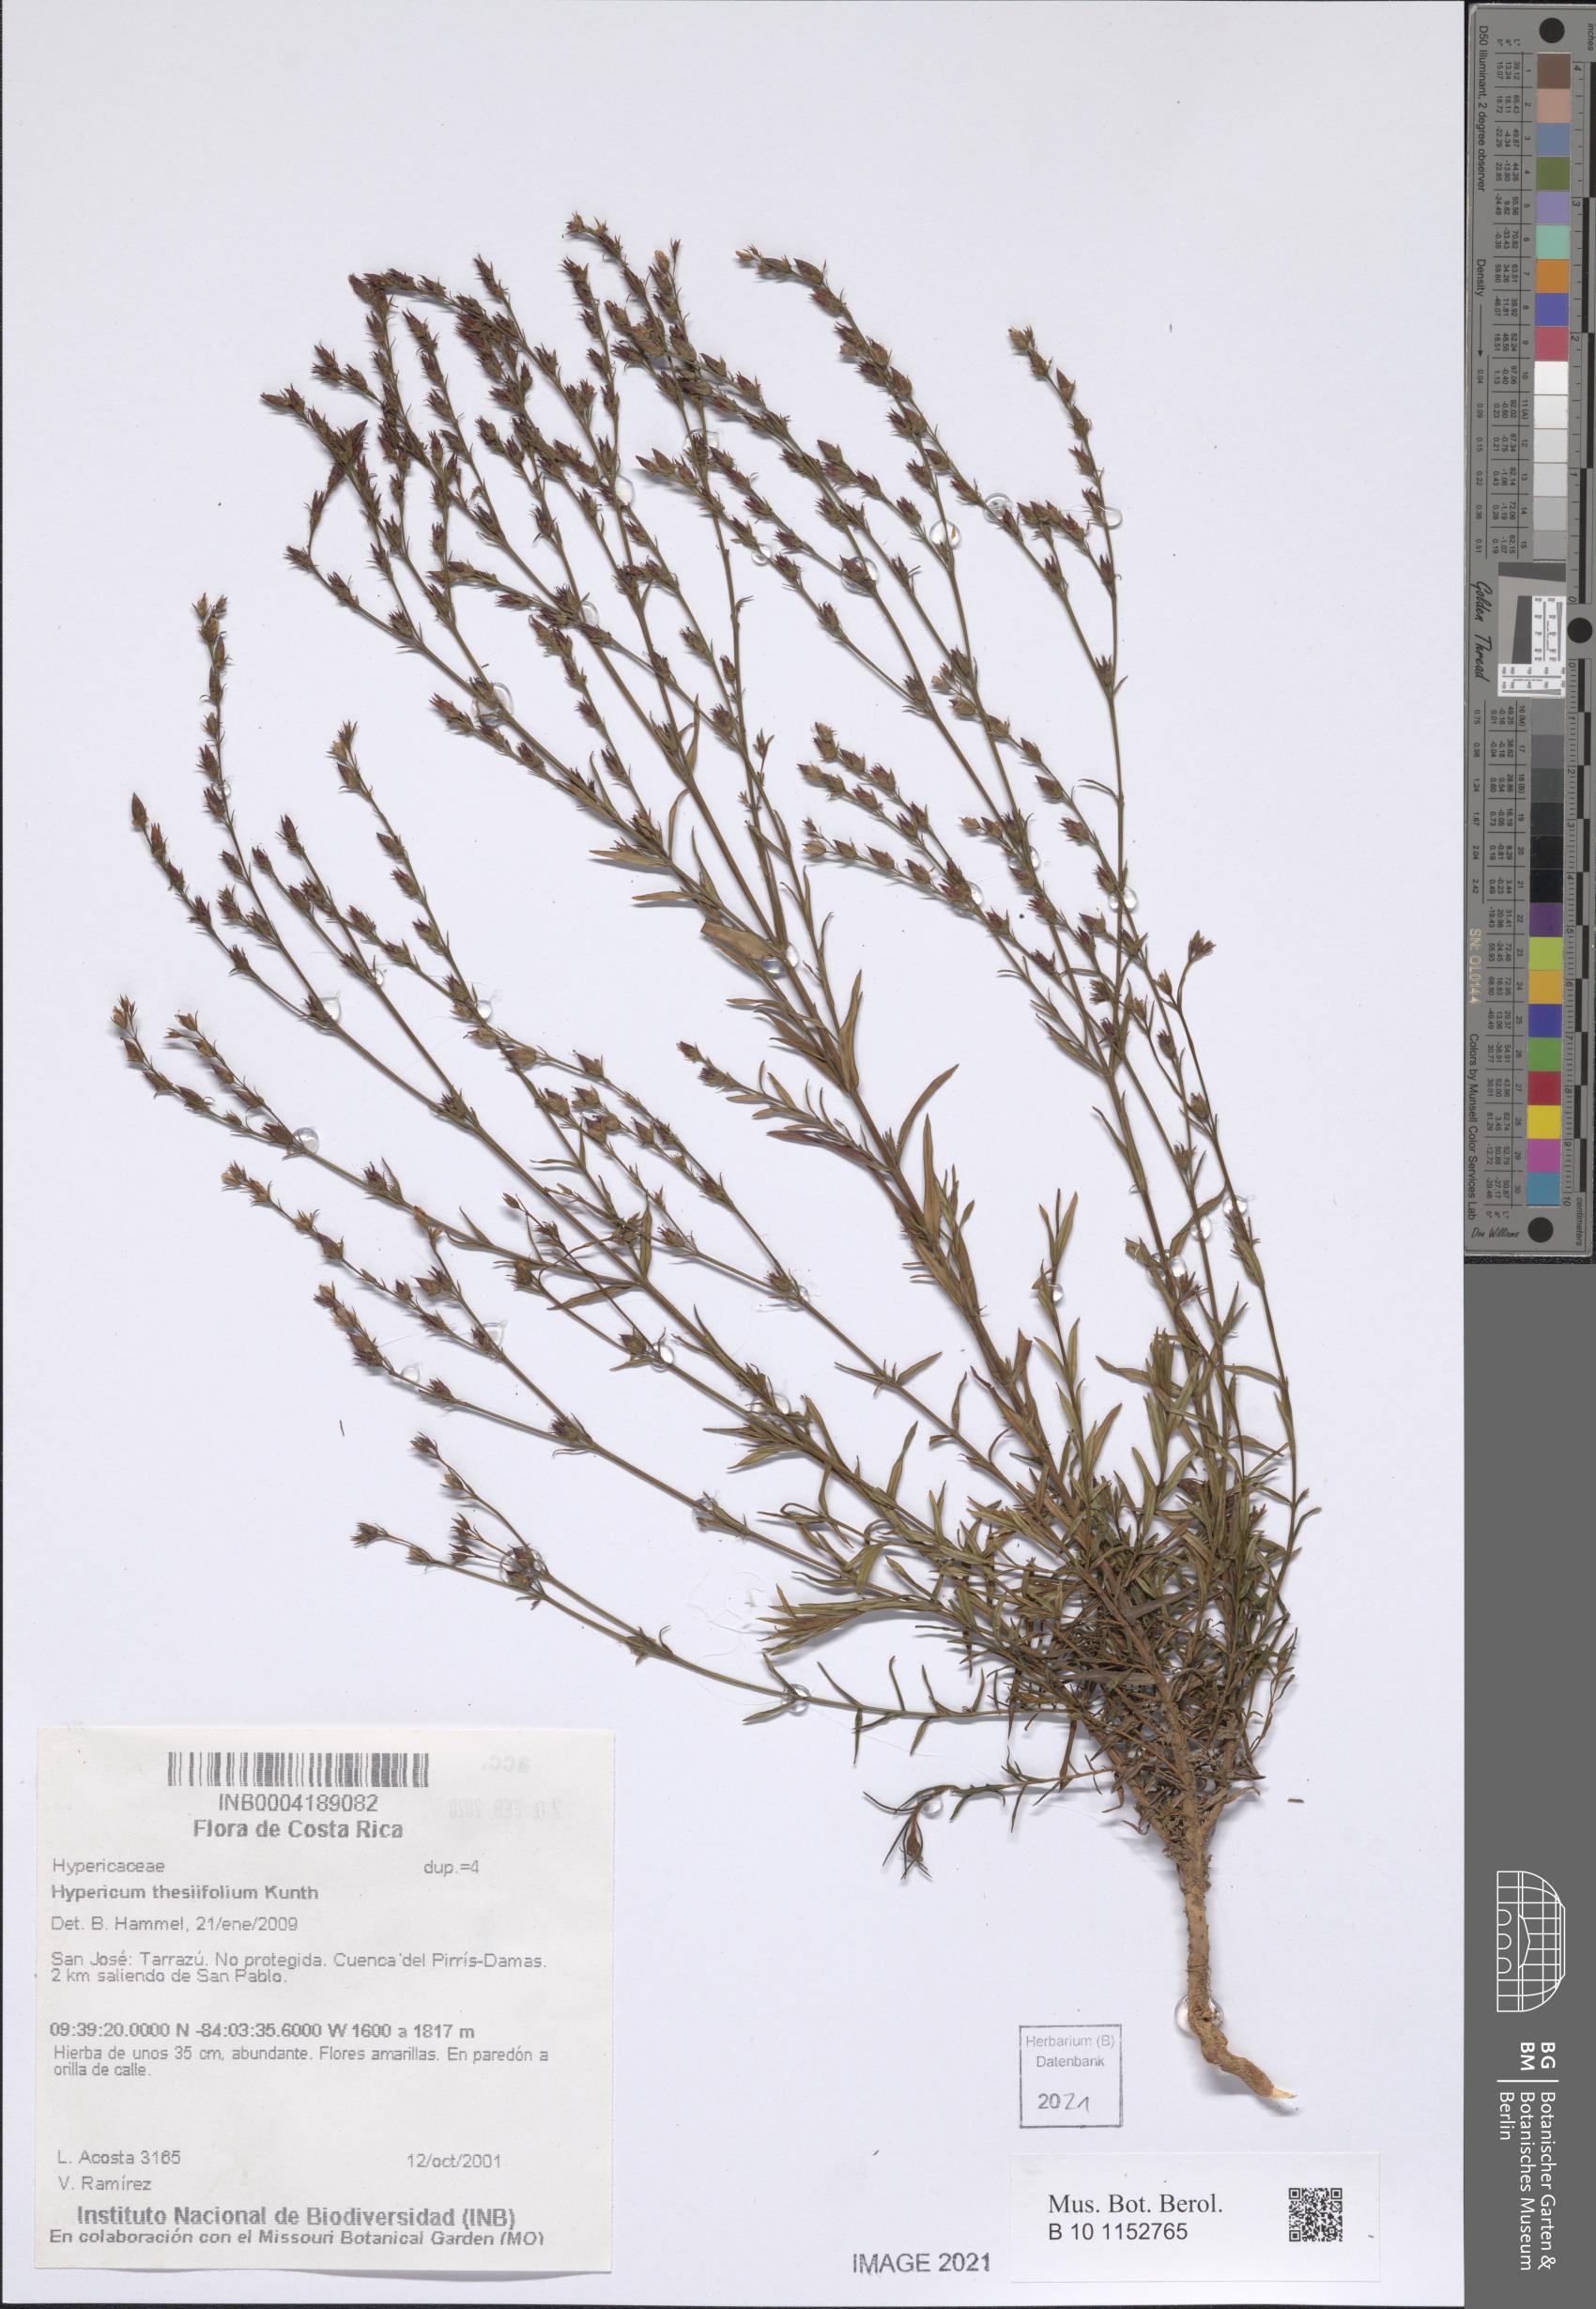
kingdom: Plantae
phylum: Tracheophyta
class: Magnoliopsida
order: Malpighiales
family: Hypericaceae
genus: Hypericum
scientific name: Hypericum thesiifolium
